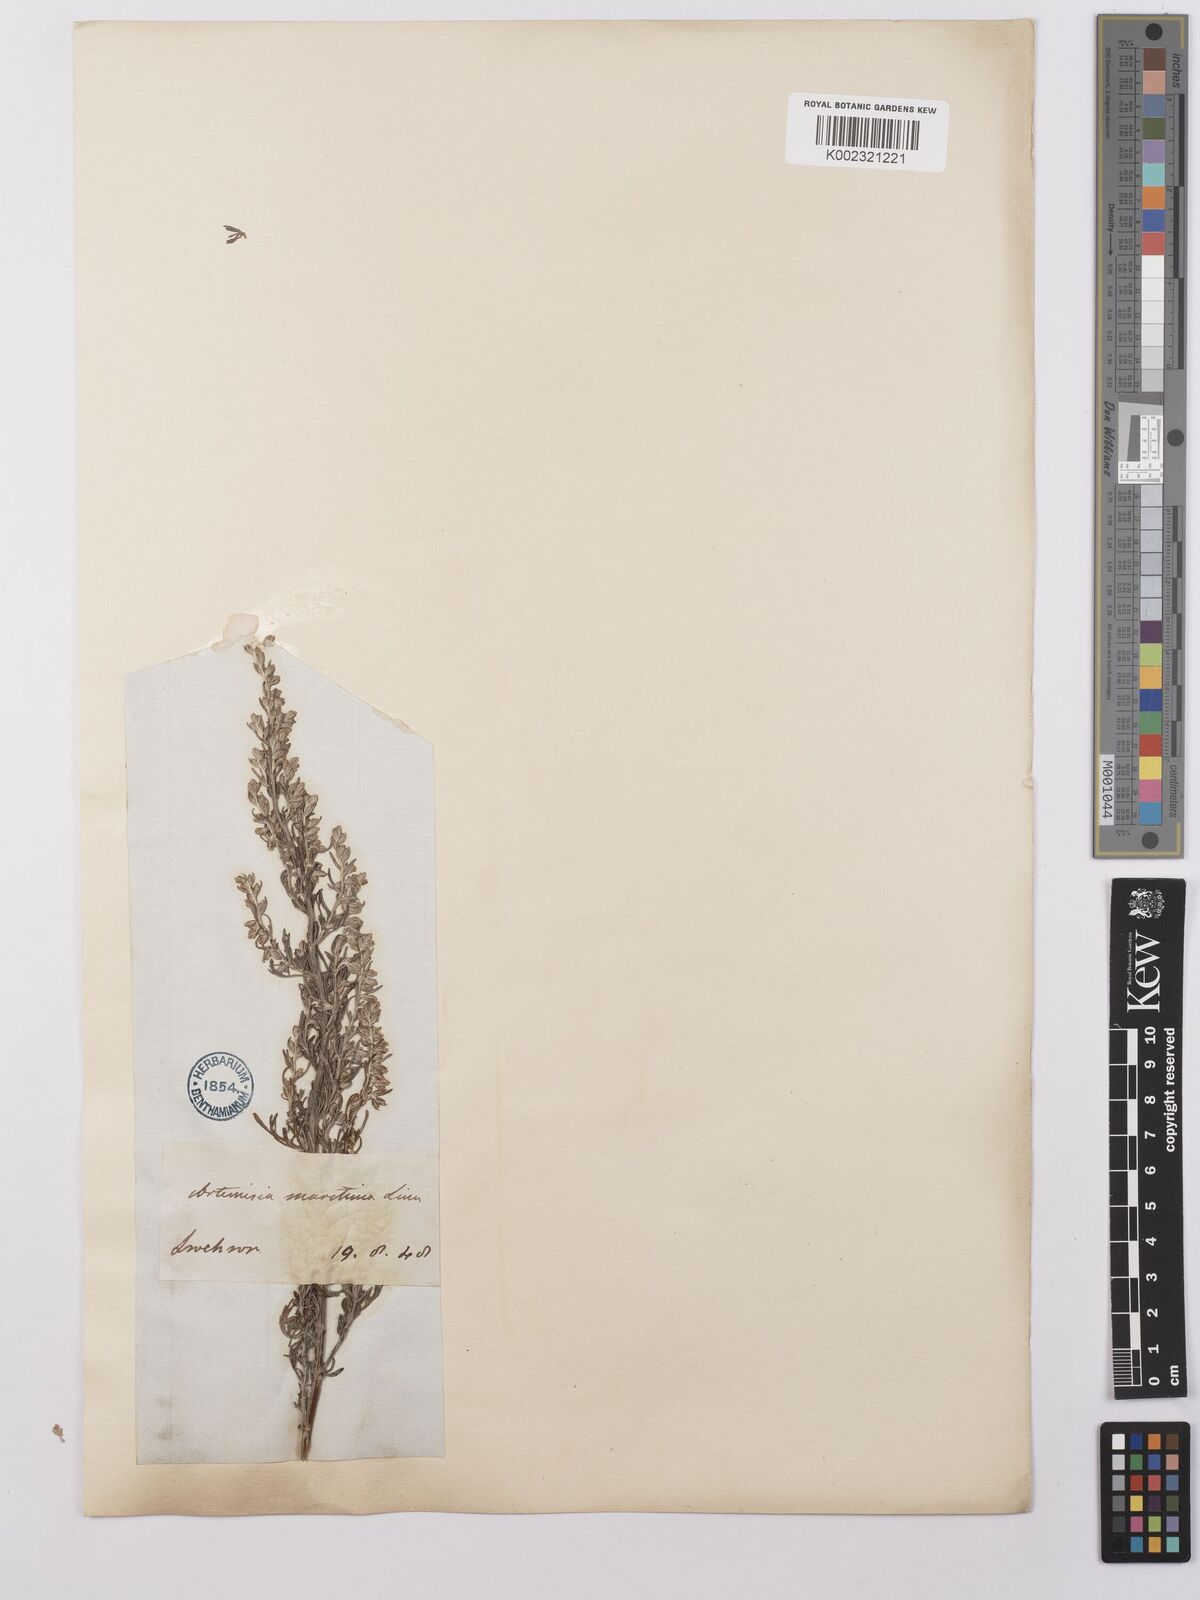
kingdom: Plantae
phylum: Tracheophyta
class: Magnoliopsida
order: Asterales
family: Asteraceae
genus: Artemisia
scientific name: Artemisia maritima
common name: Wormseed
